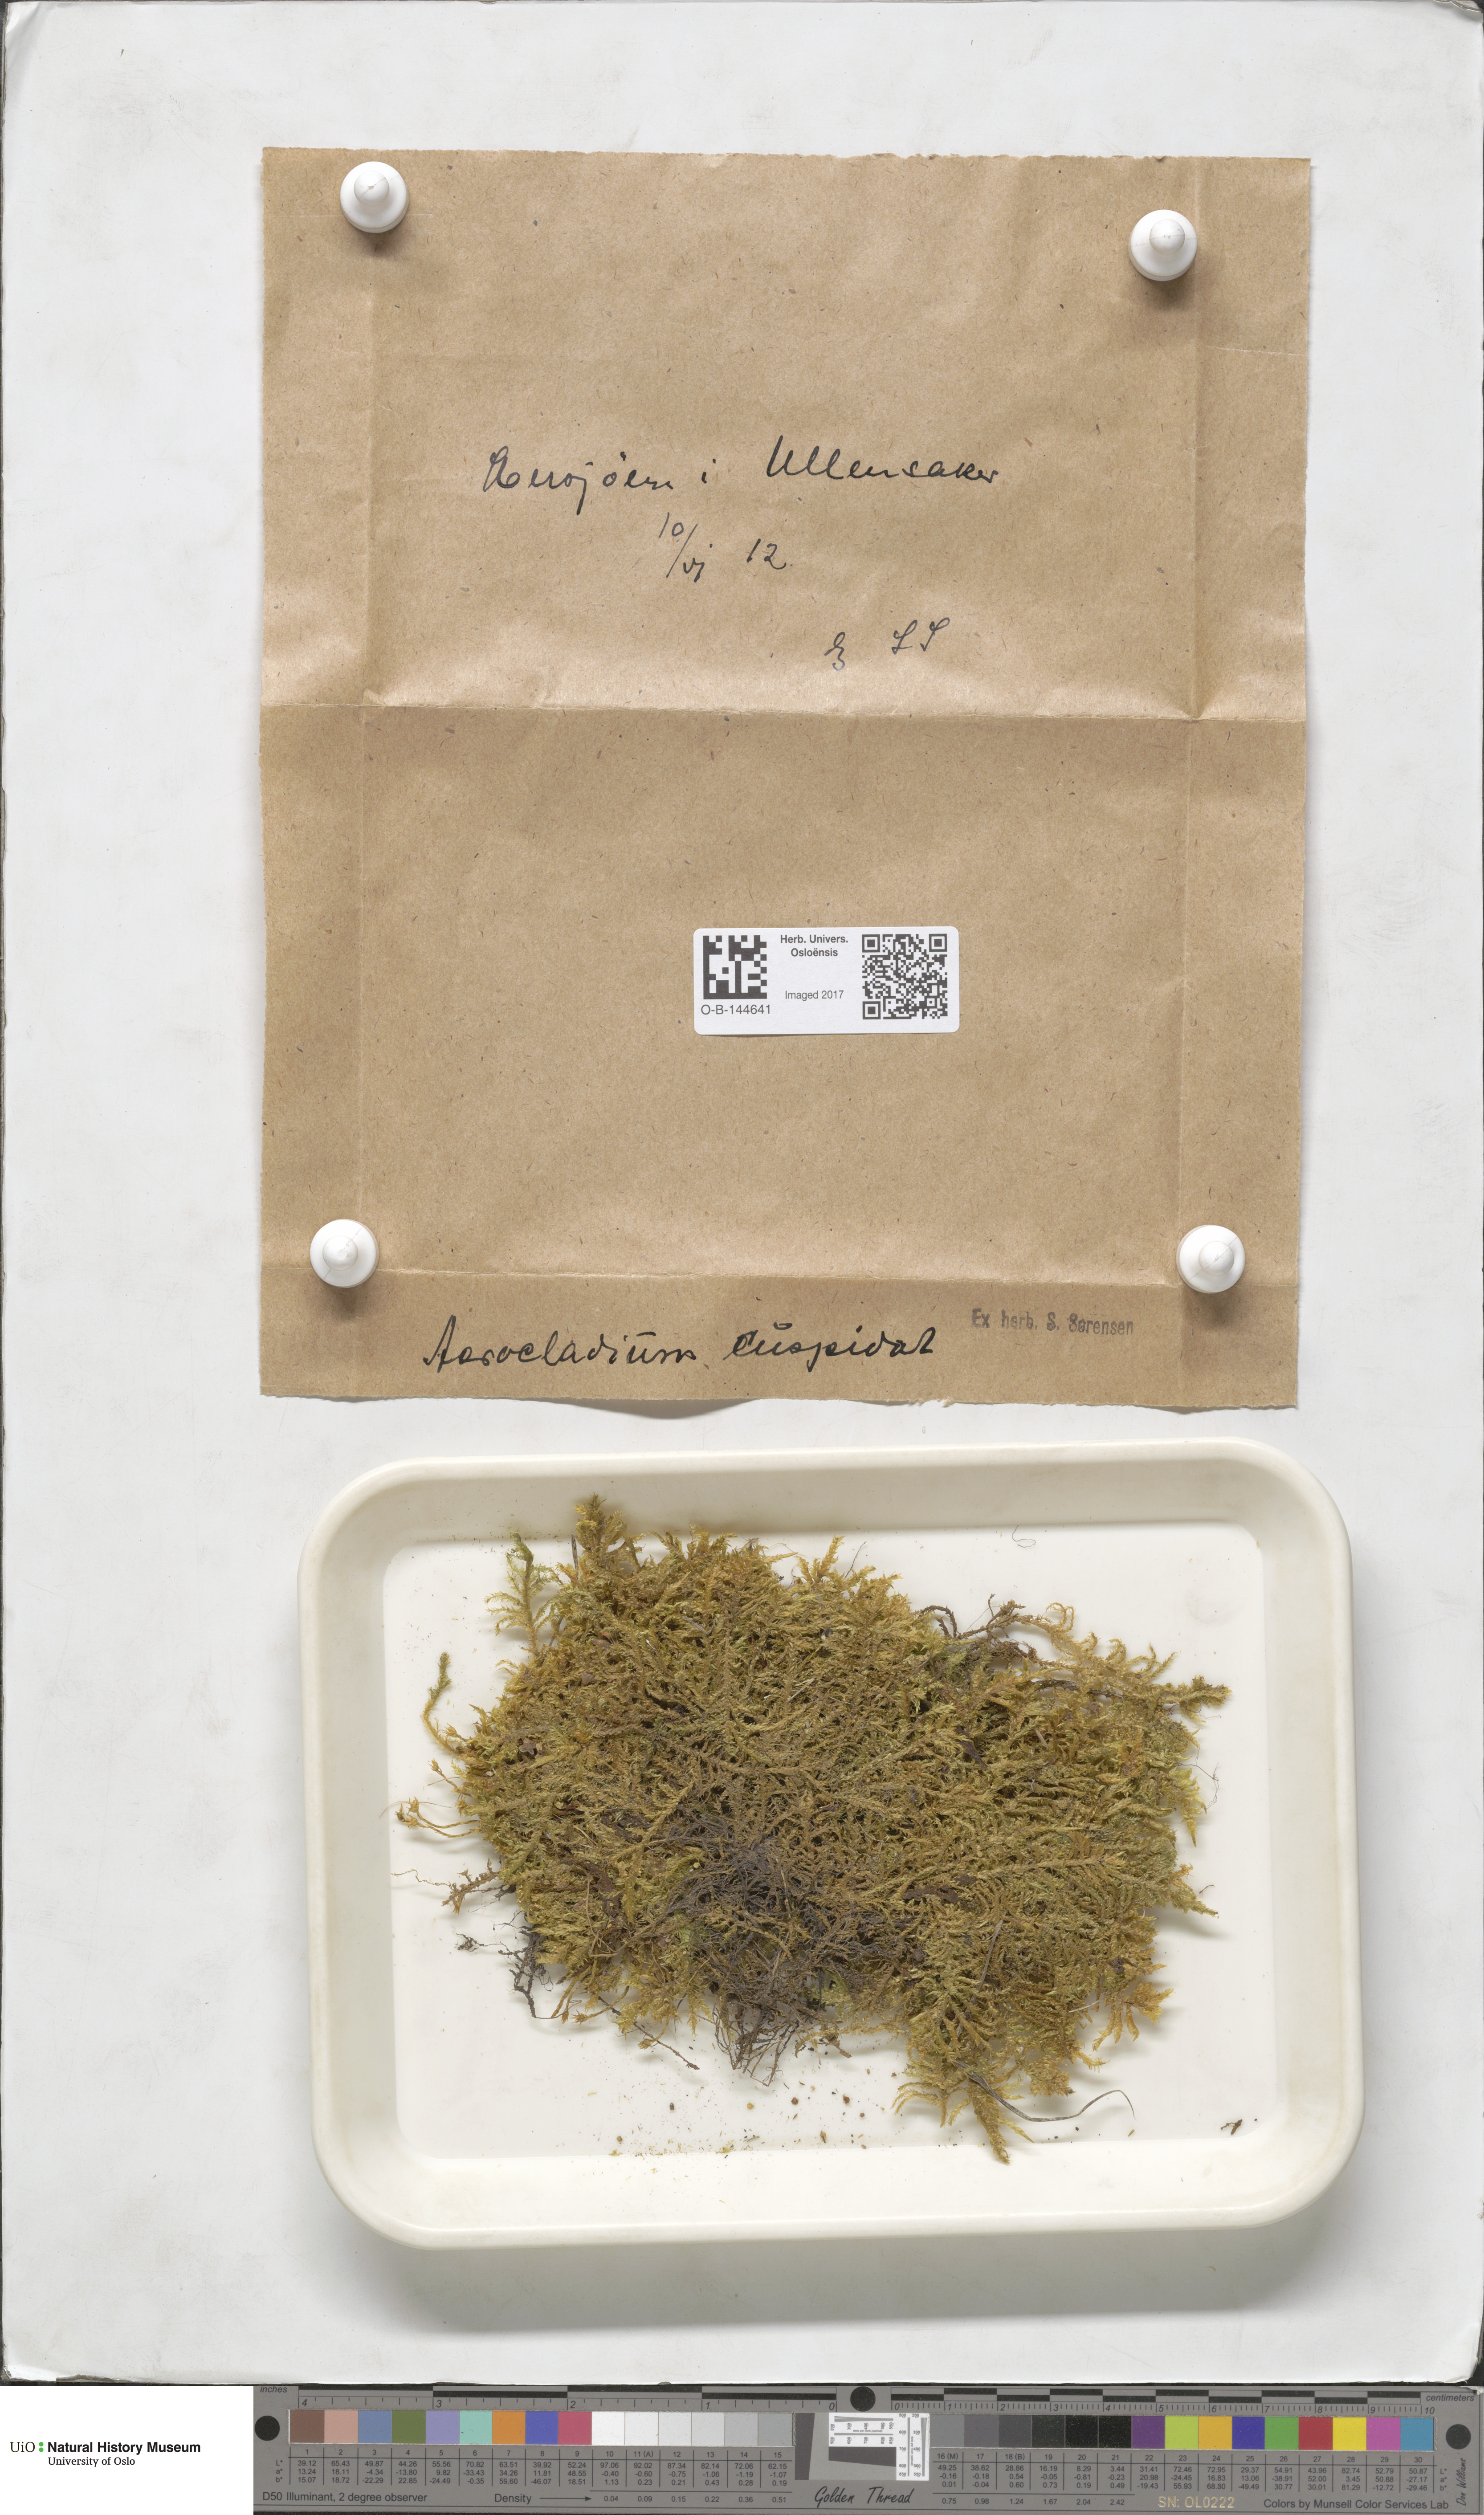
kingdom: Plantae
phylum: Bryophyta
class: Bryopsida
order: Hypnales
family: Pylaisiaceae
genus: Calliergonella
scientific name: Calliergonella cuspidata
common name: Common large wetland moss
